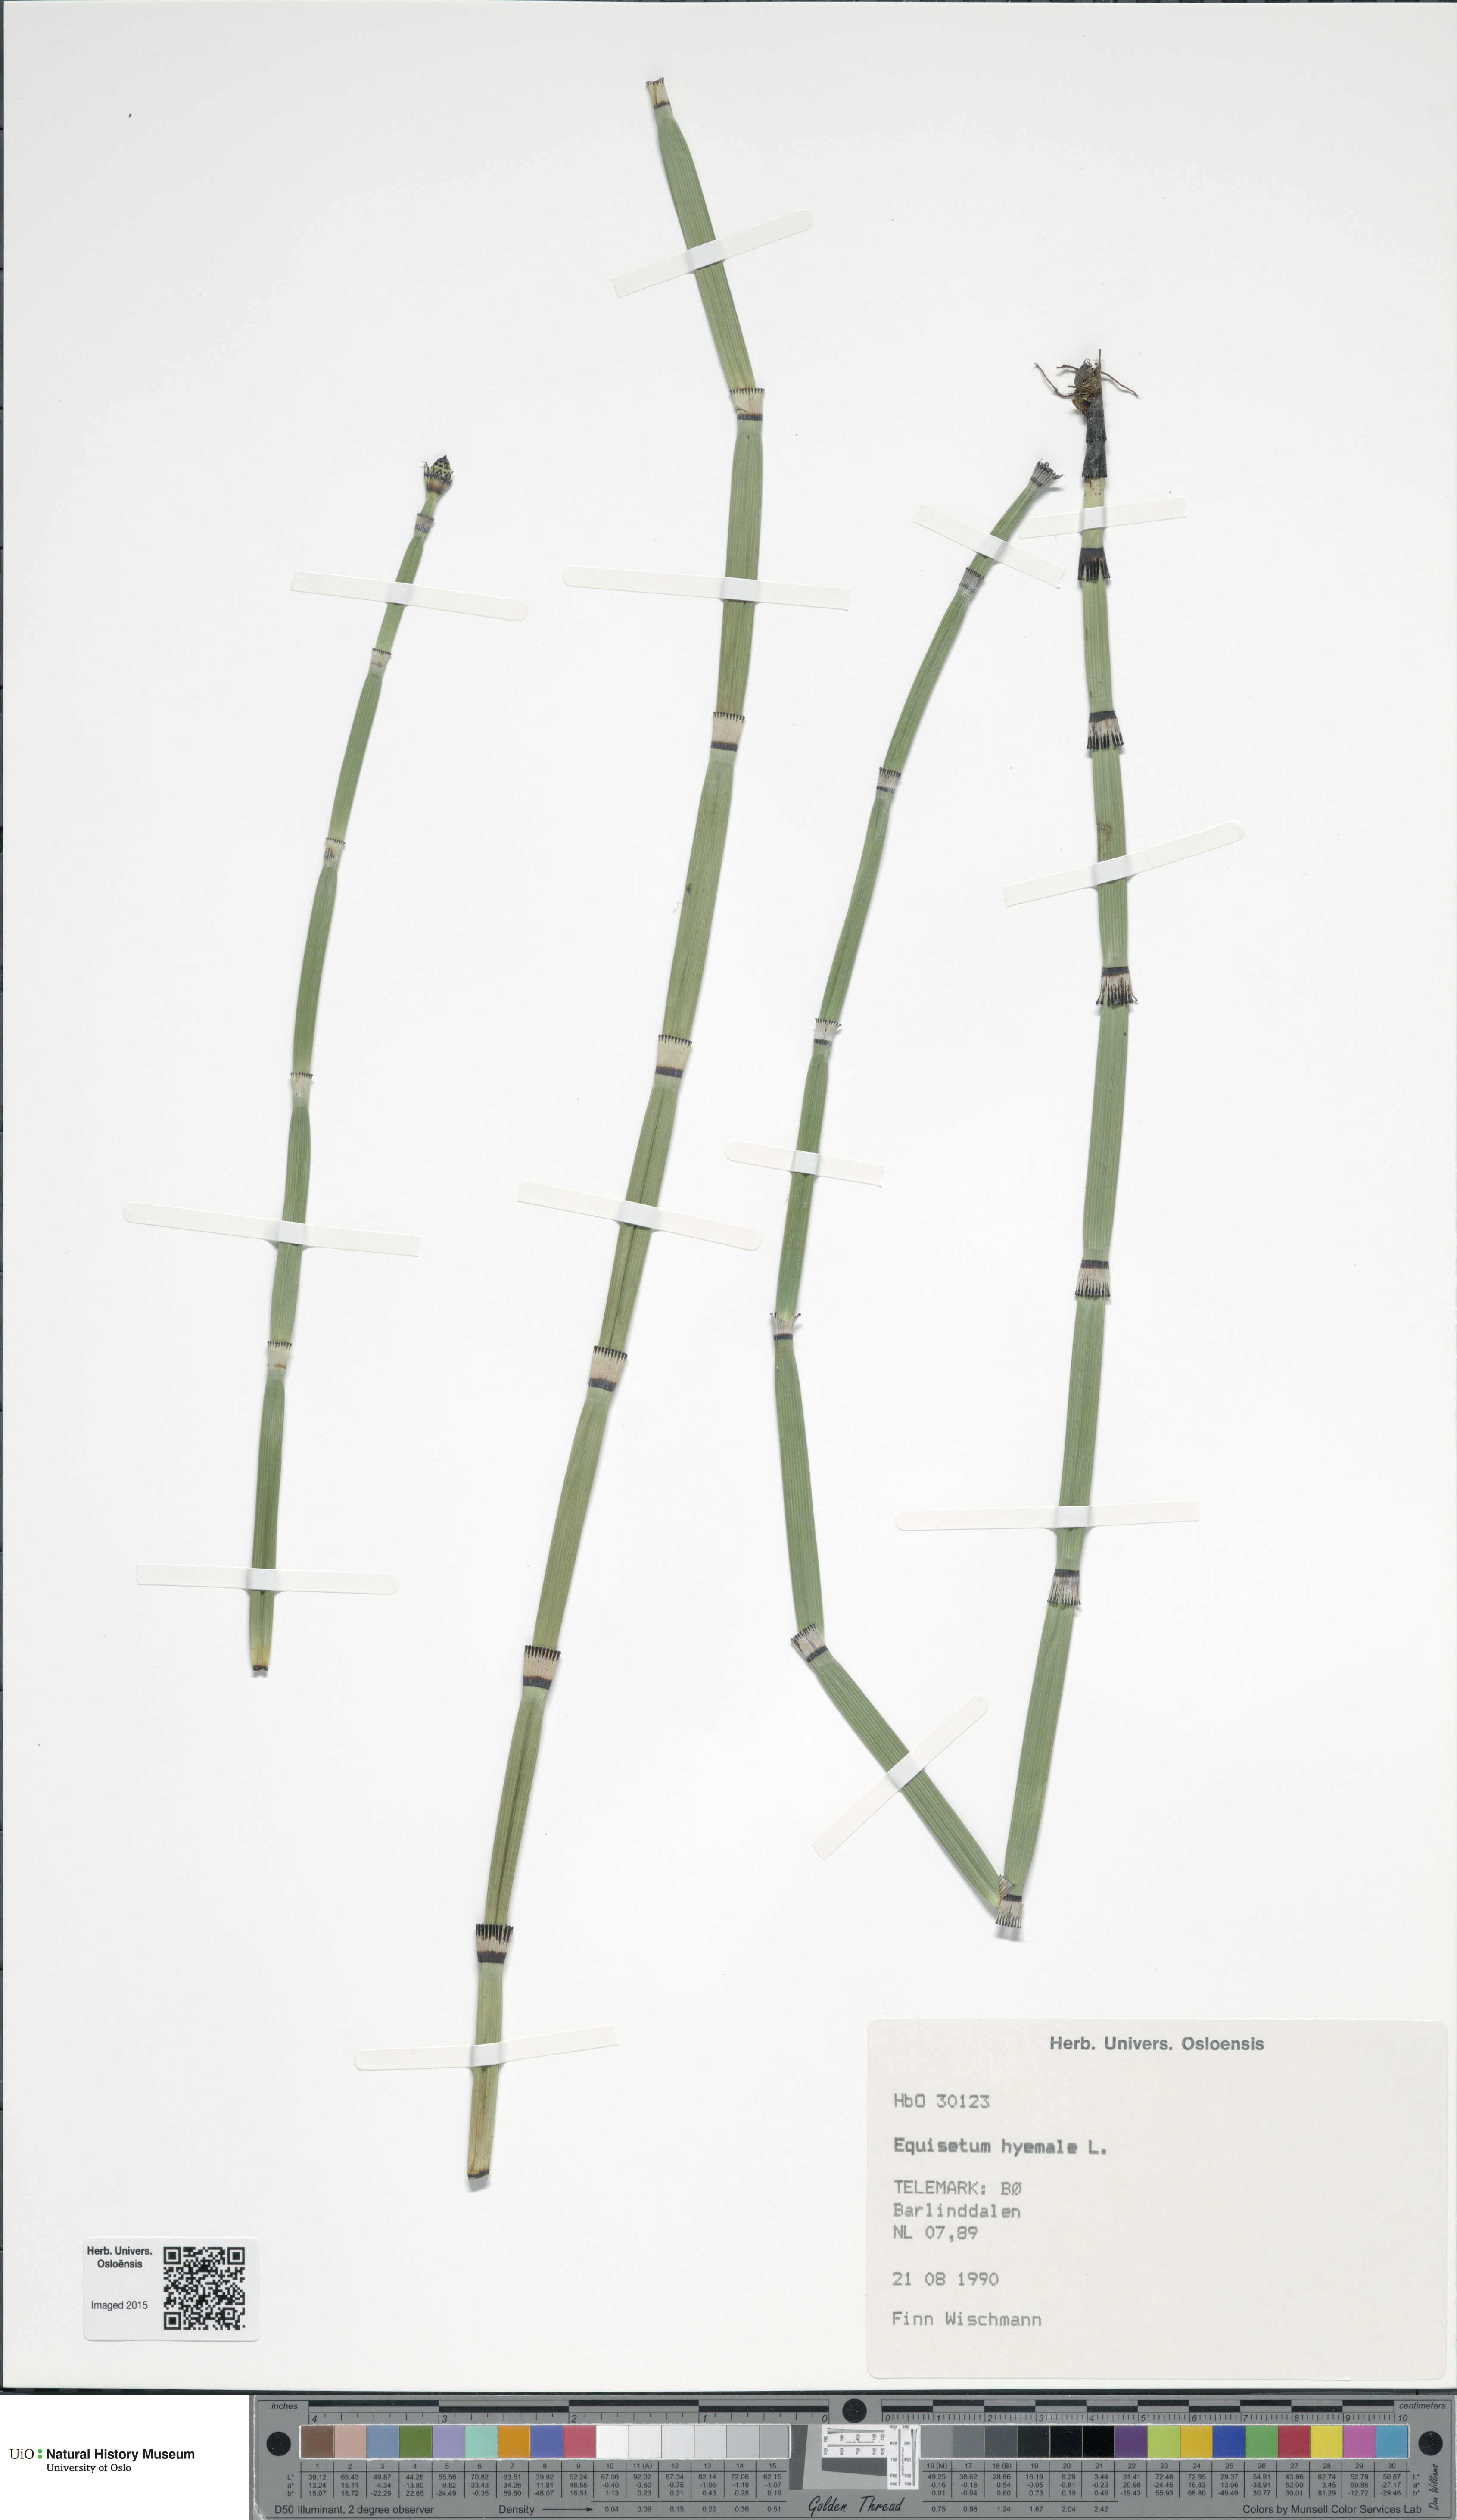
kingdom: Plantae
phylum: Tracheophyta
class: Polypodiopsida
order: Equisetales
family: Equisetaceae
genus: Equisetum
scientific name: Equisetum hyemale
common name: Rough horsetail
